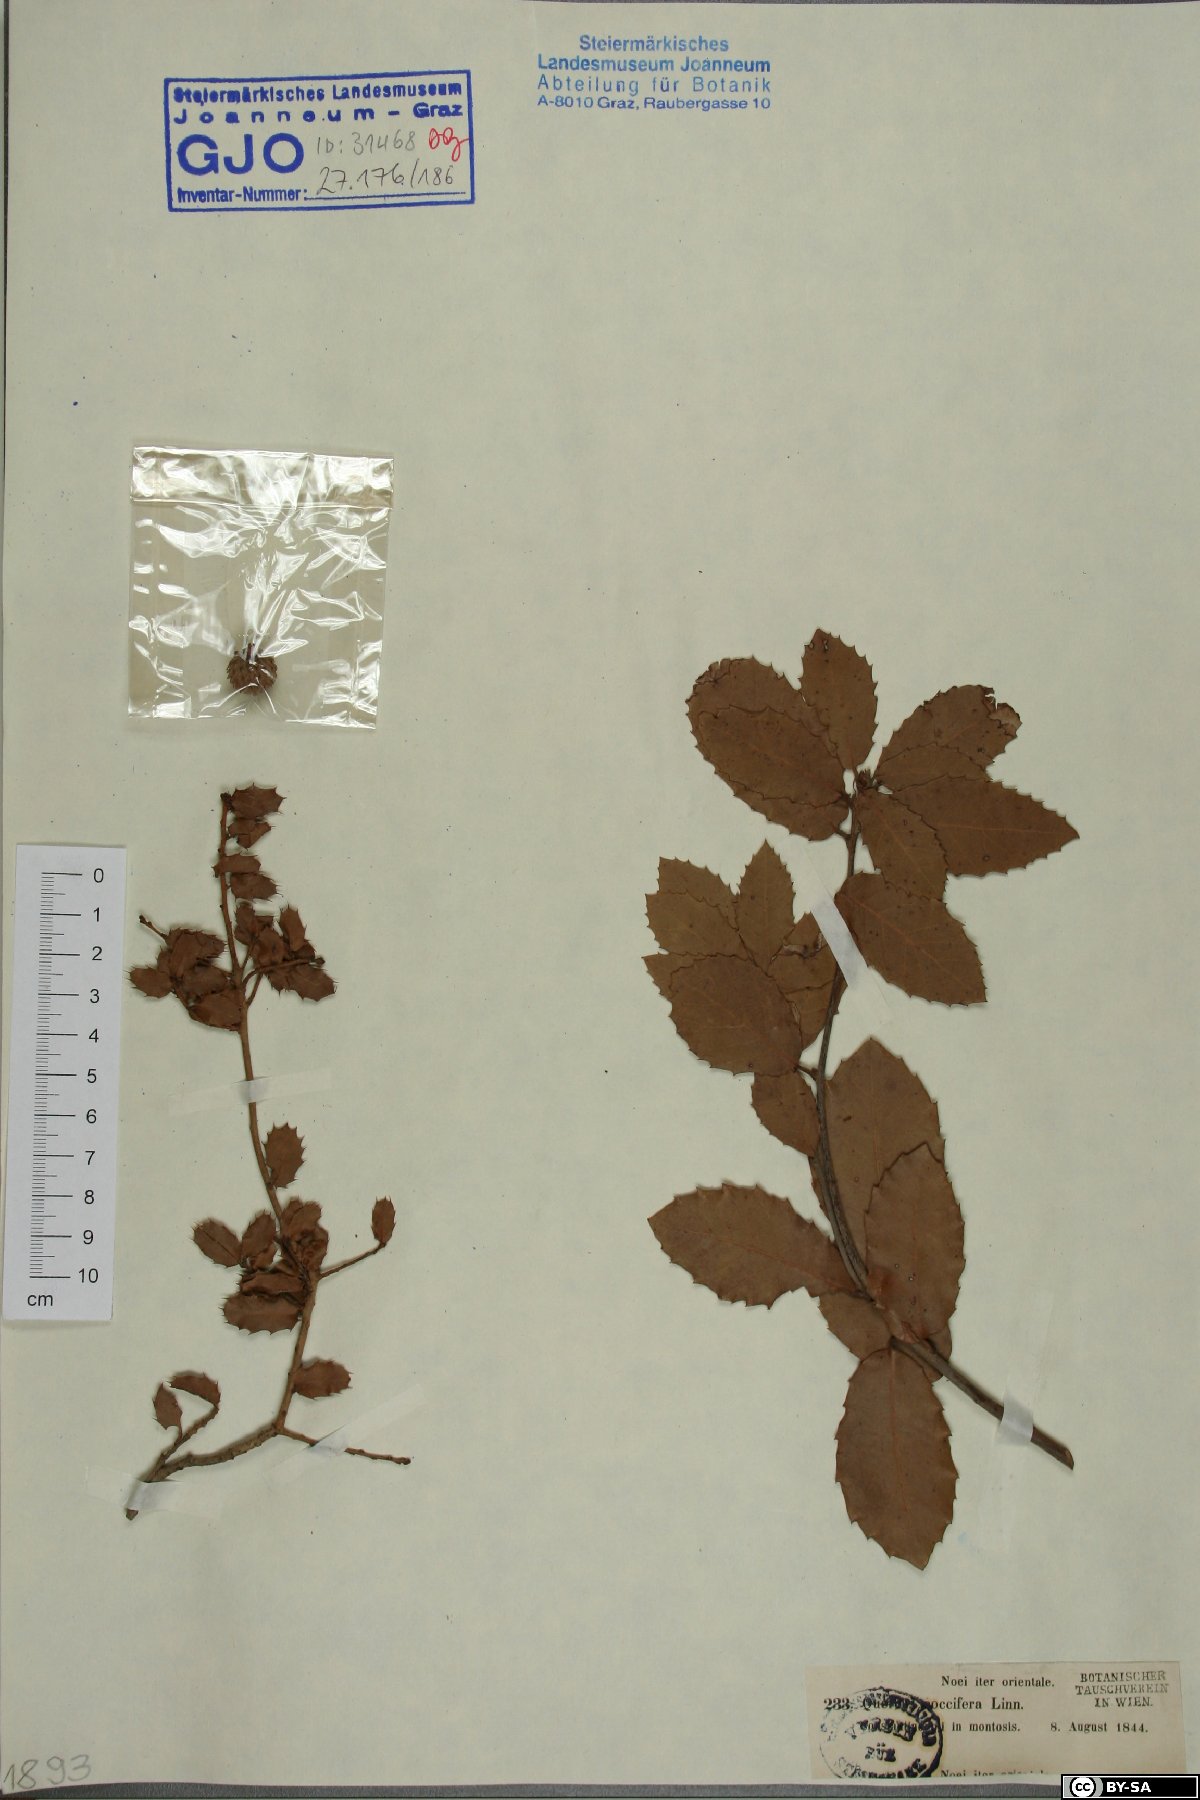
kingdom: Plantae
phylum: Tracheophyta
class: Magnoliopsida
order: Fagales
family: Fagaceae
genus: Quercus
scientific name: Quercus coccifera
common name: Kermes oak
